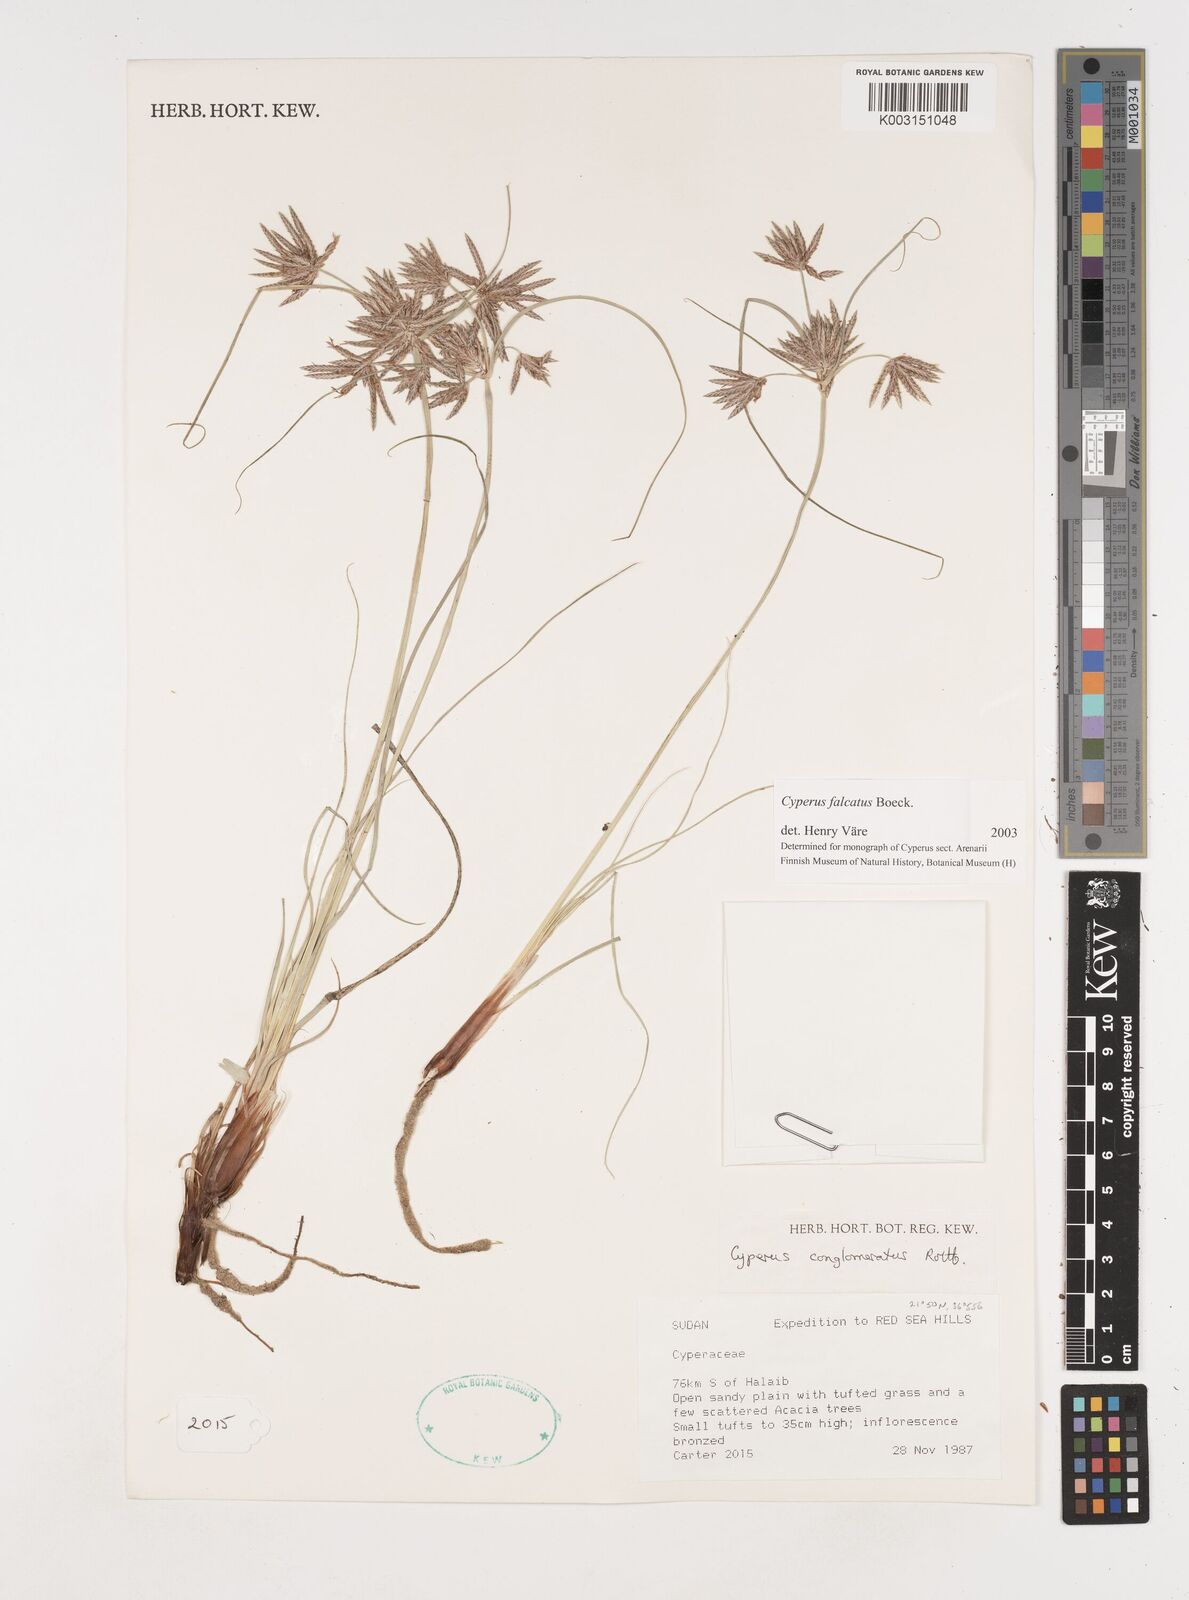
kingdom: Plantae
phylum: Tracheophyta
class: Liliopsida
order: Poales
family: Cyperaceae
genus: Cyperus
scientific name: Cyperus conglomeratus
